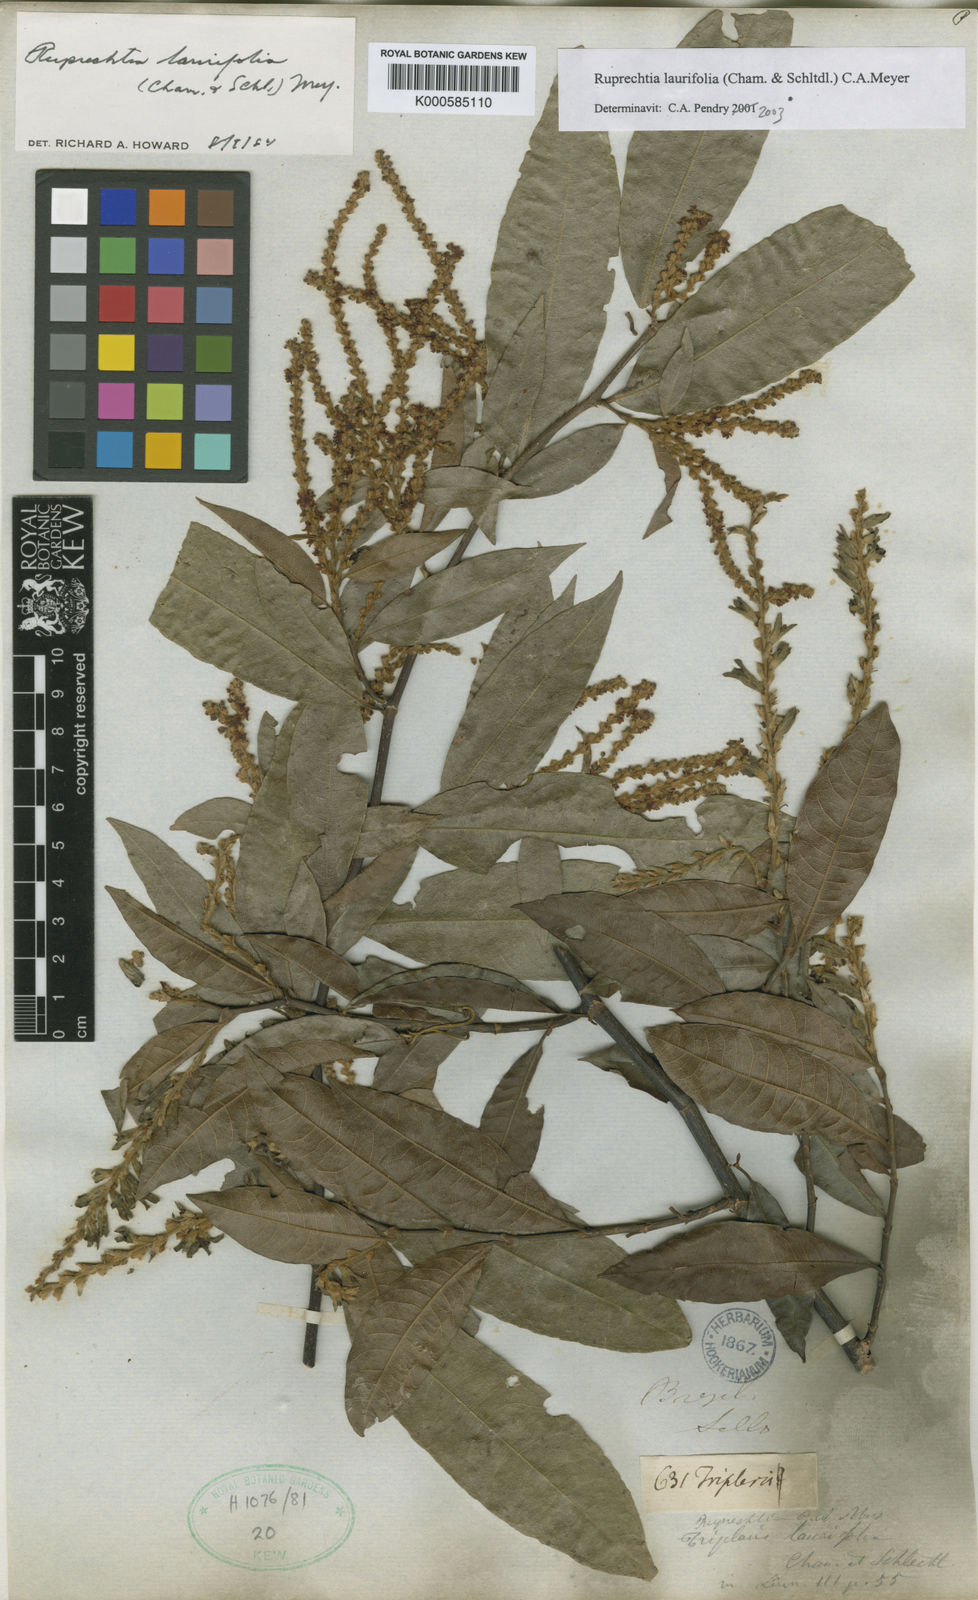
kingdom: Plantae
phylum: Tracheophyta
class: Magnoliopsida
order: Caryophyllales
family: Polygonaceae
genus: Ruprechtia
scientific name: Ruprechtia scandens
